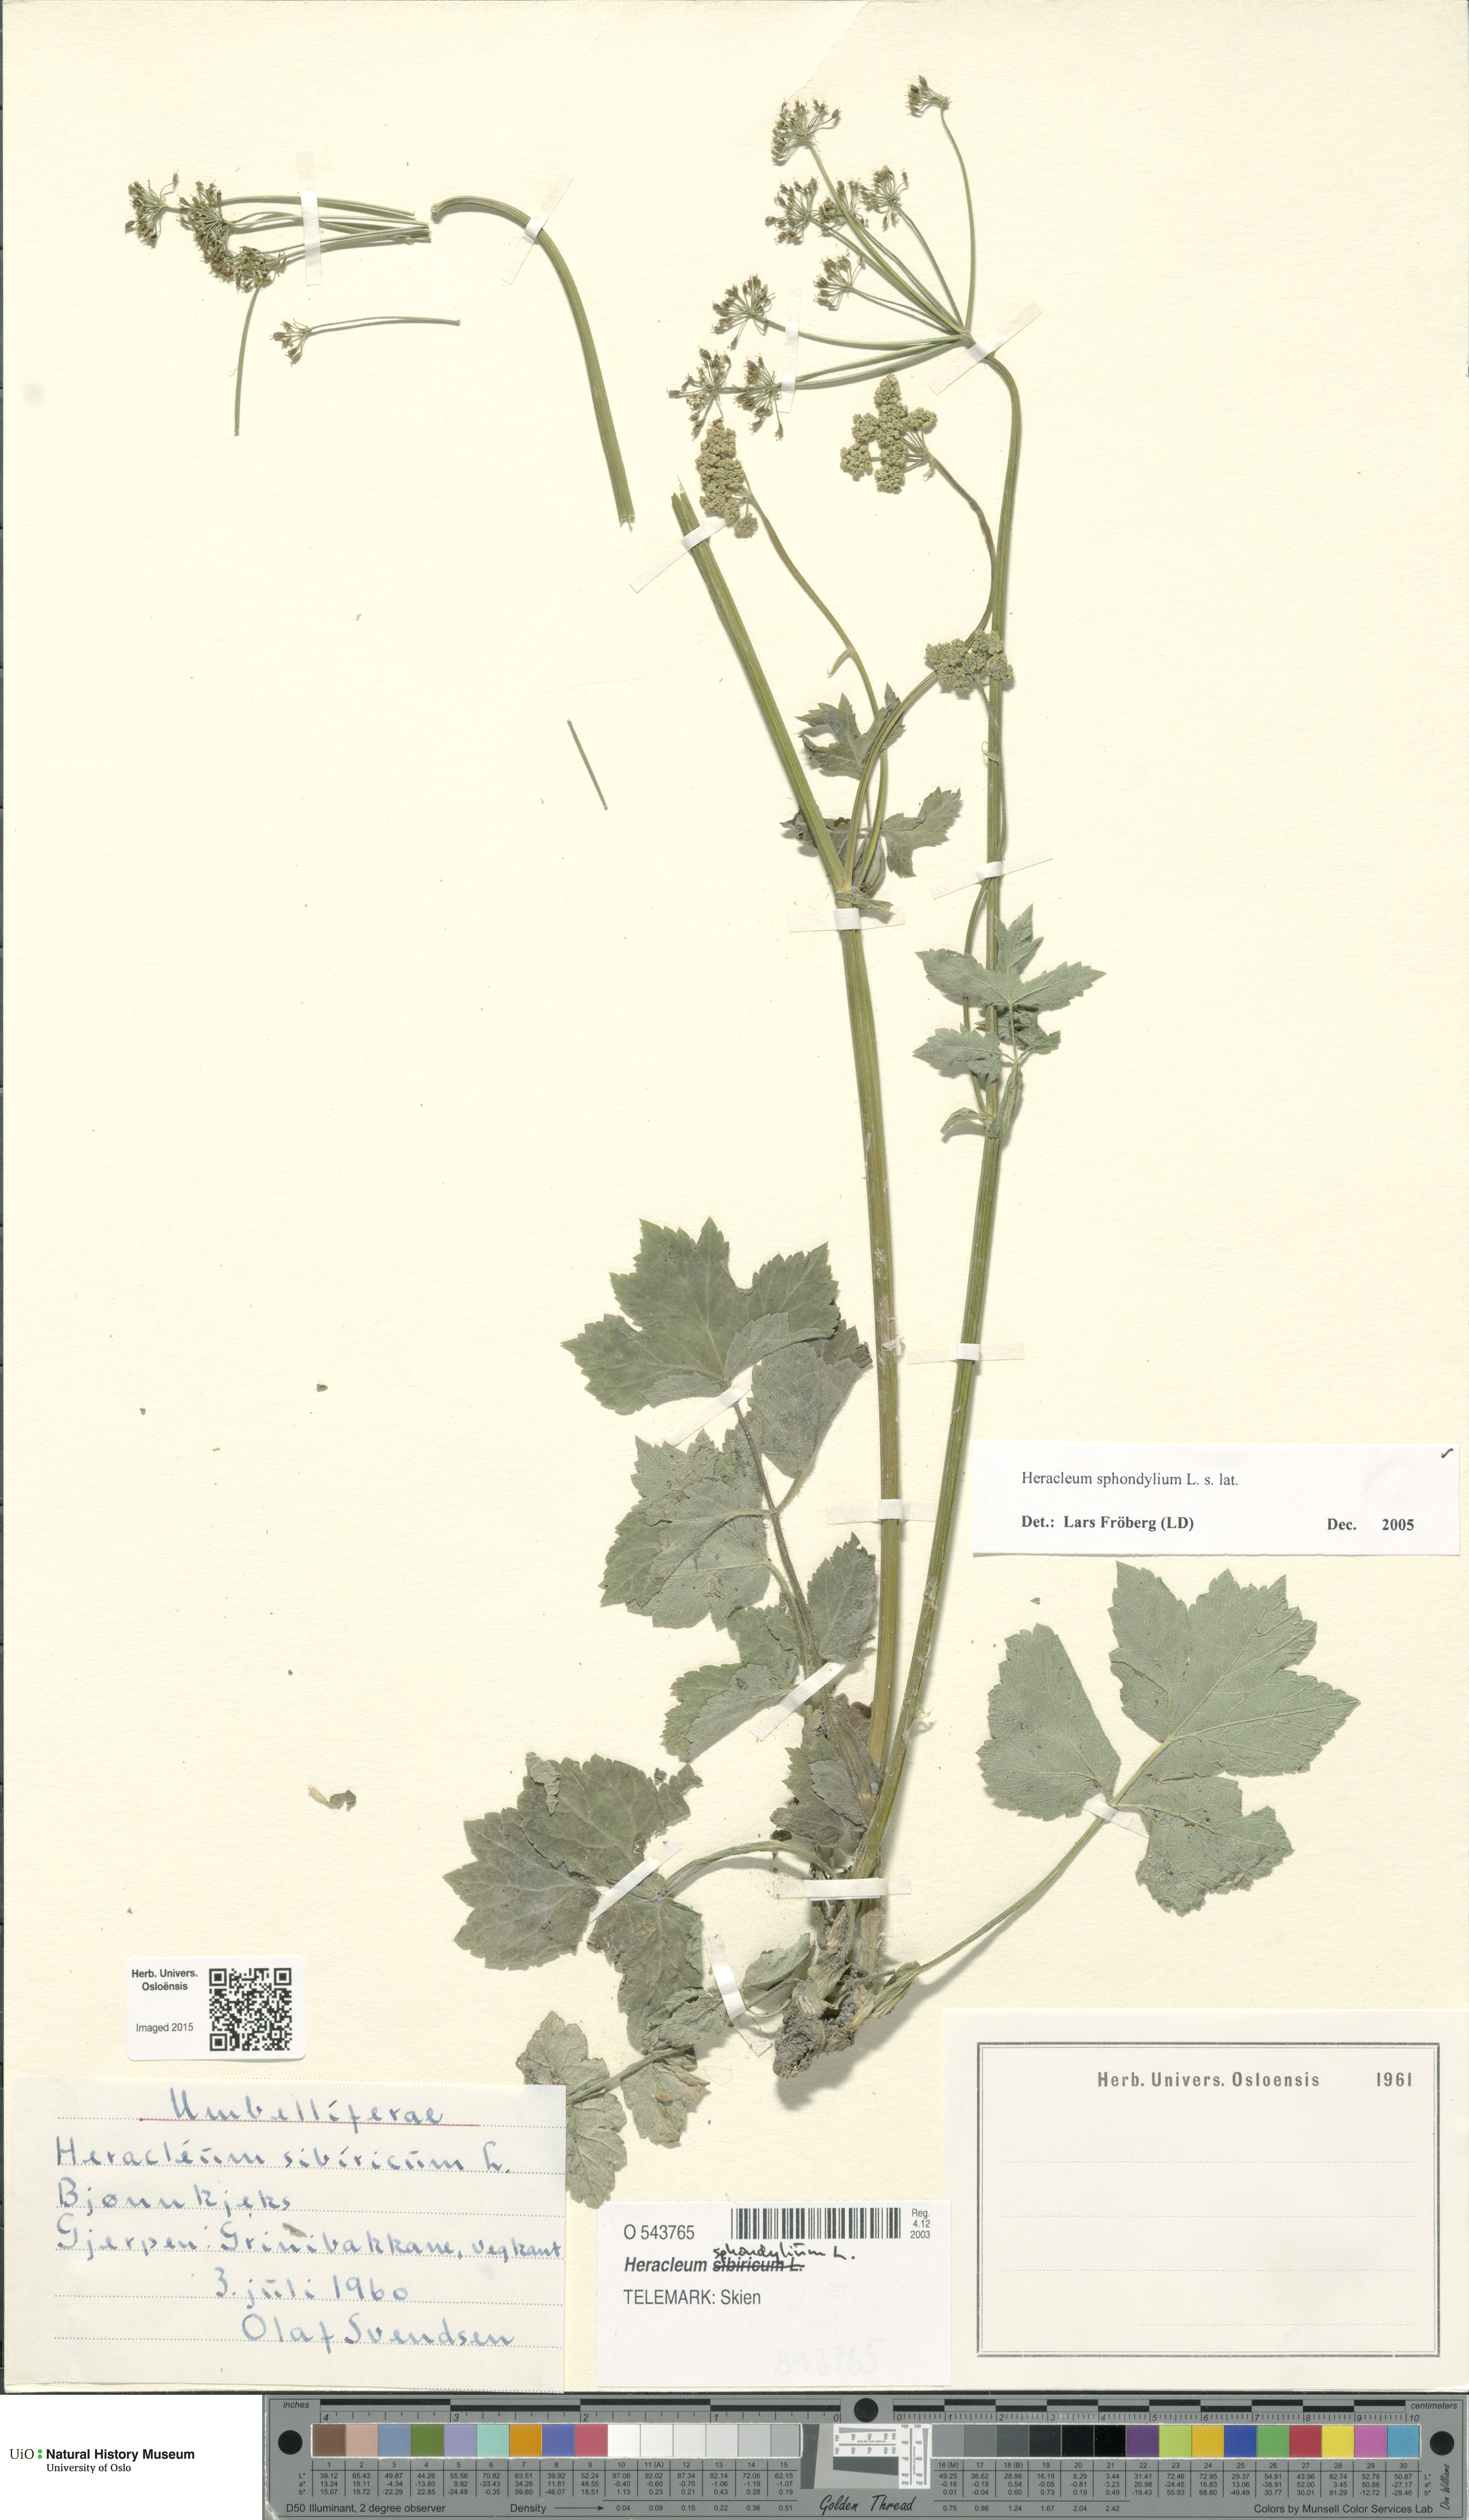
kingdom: Plantae
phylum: Tracheophyta
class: Magnoliopsida
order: Apiales
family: Apiaceae
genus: Heracleum
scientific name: Heracleum sphondylium
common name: Hogweed
